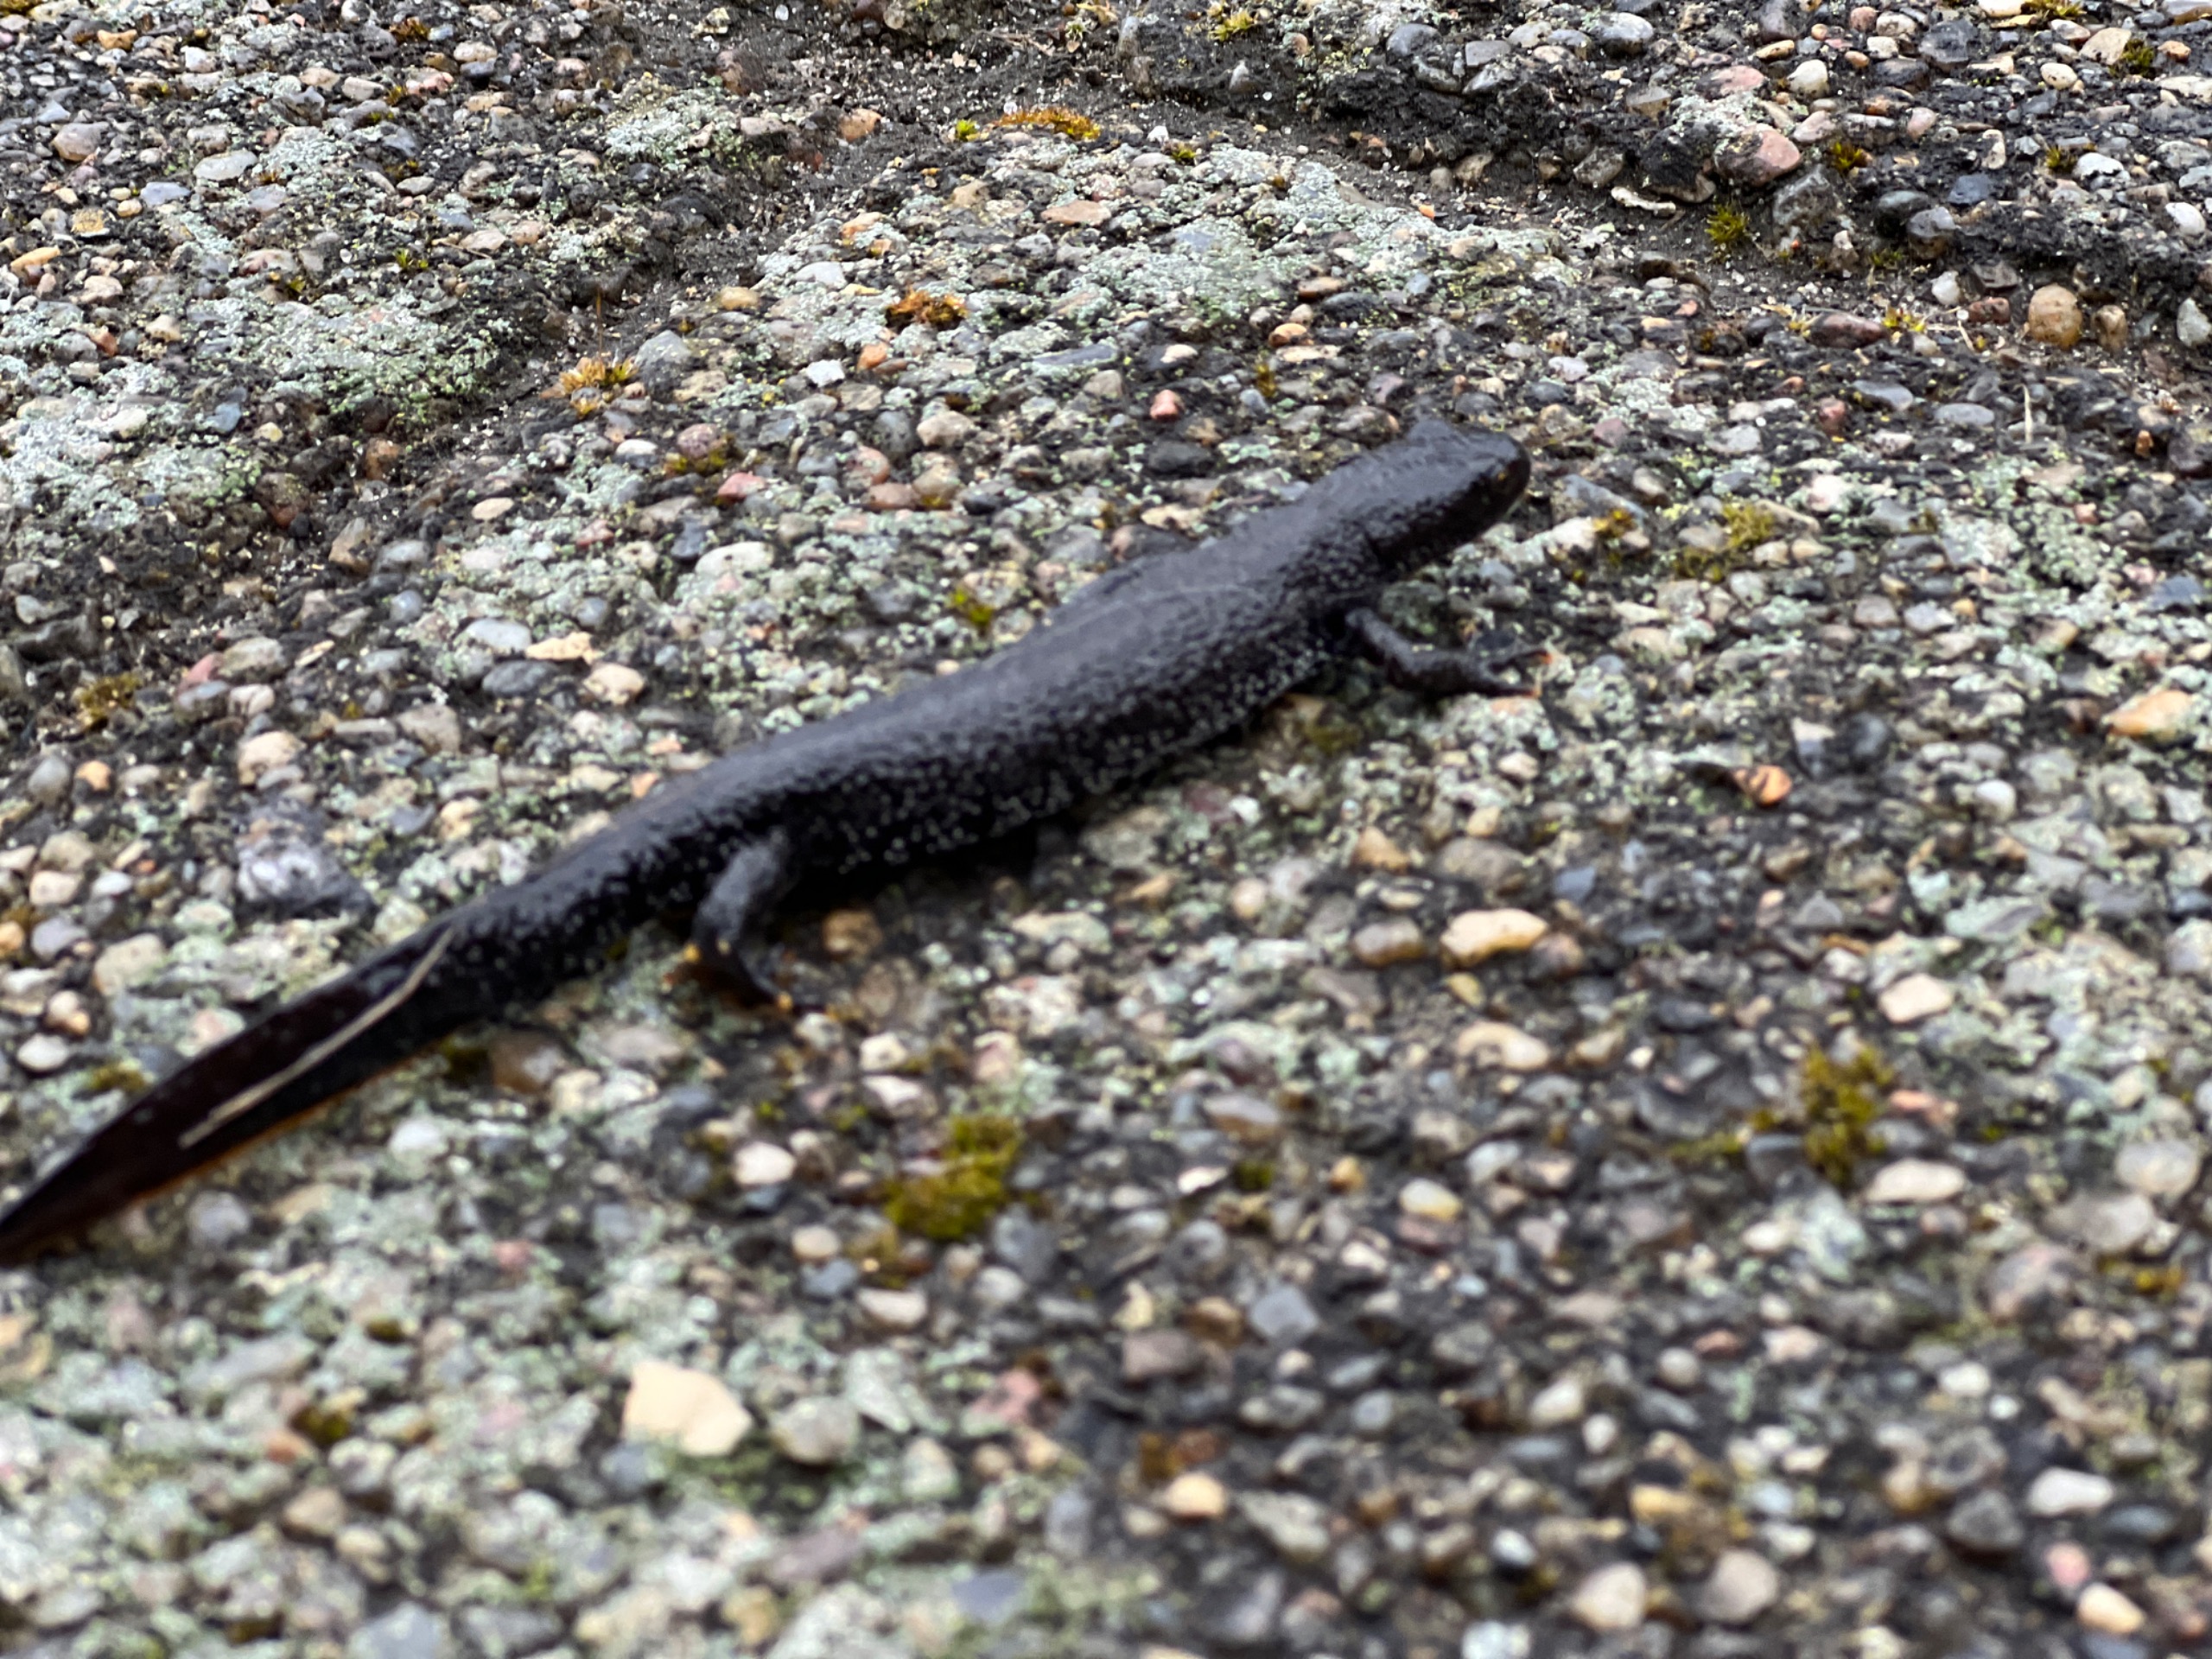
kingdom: Animalia
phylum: Chordata
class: Amphibia
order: Caudata
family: Salamandridae
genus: Triturus
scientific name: Triturus cristatus
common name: Stor vandsalamander
